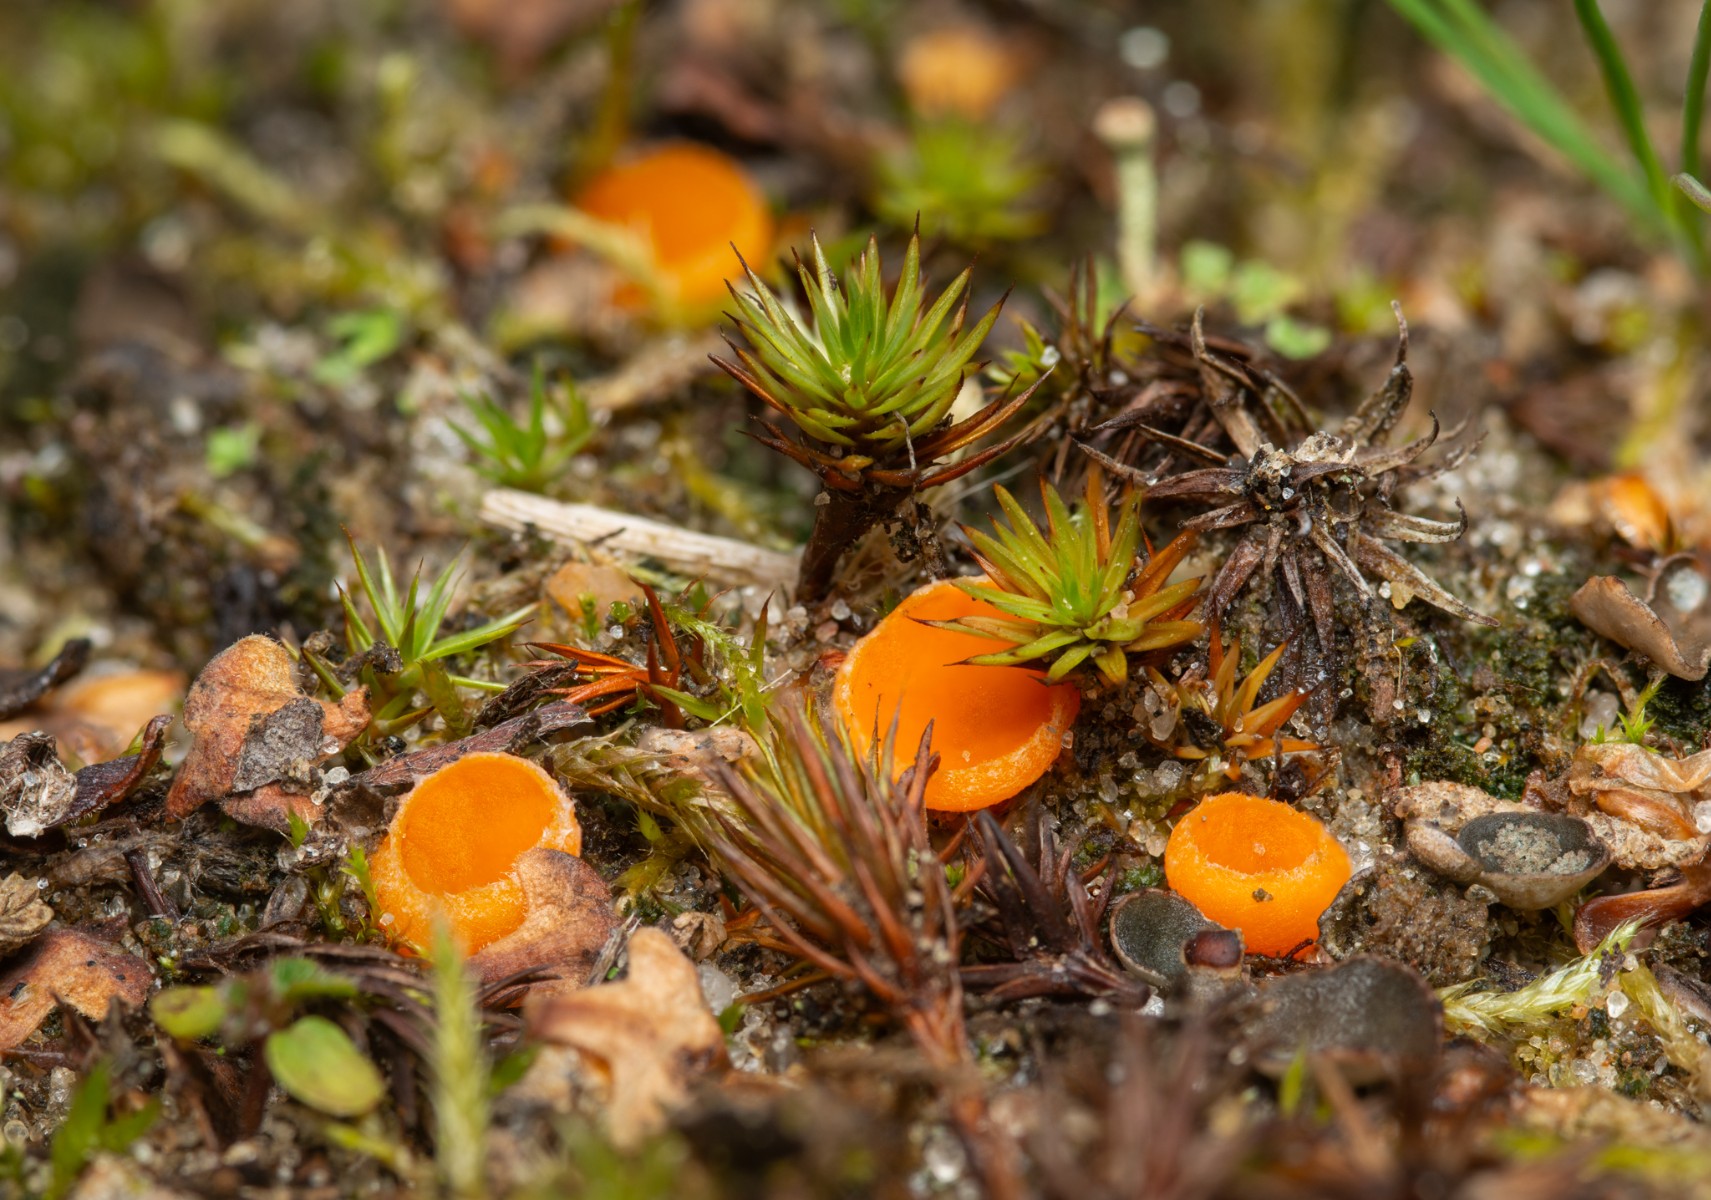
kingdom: Fungi
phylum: Ascomycota
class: Pezizomycetes
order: Pezizales
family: Pyronemataceae
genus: Neottiella
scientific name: Neottiella rutilans
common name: jomfruhår-mosbæger
